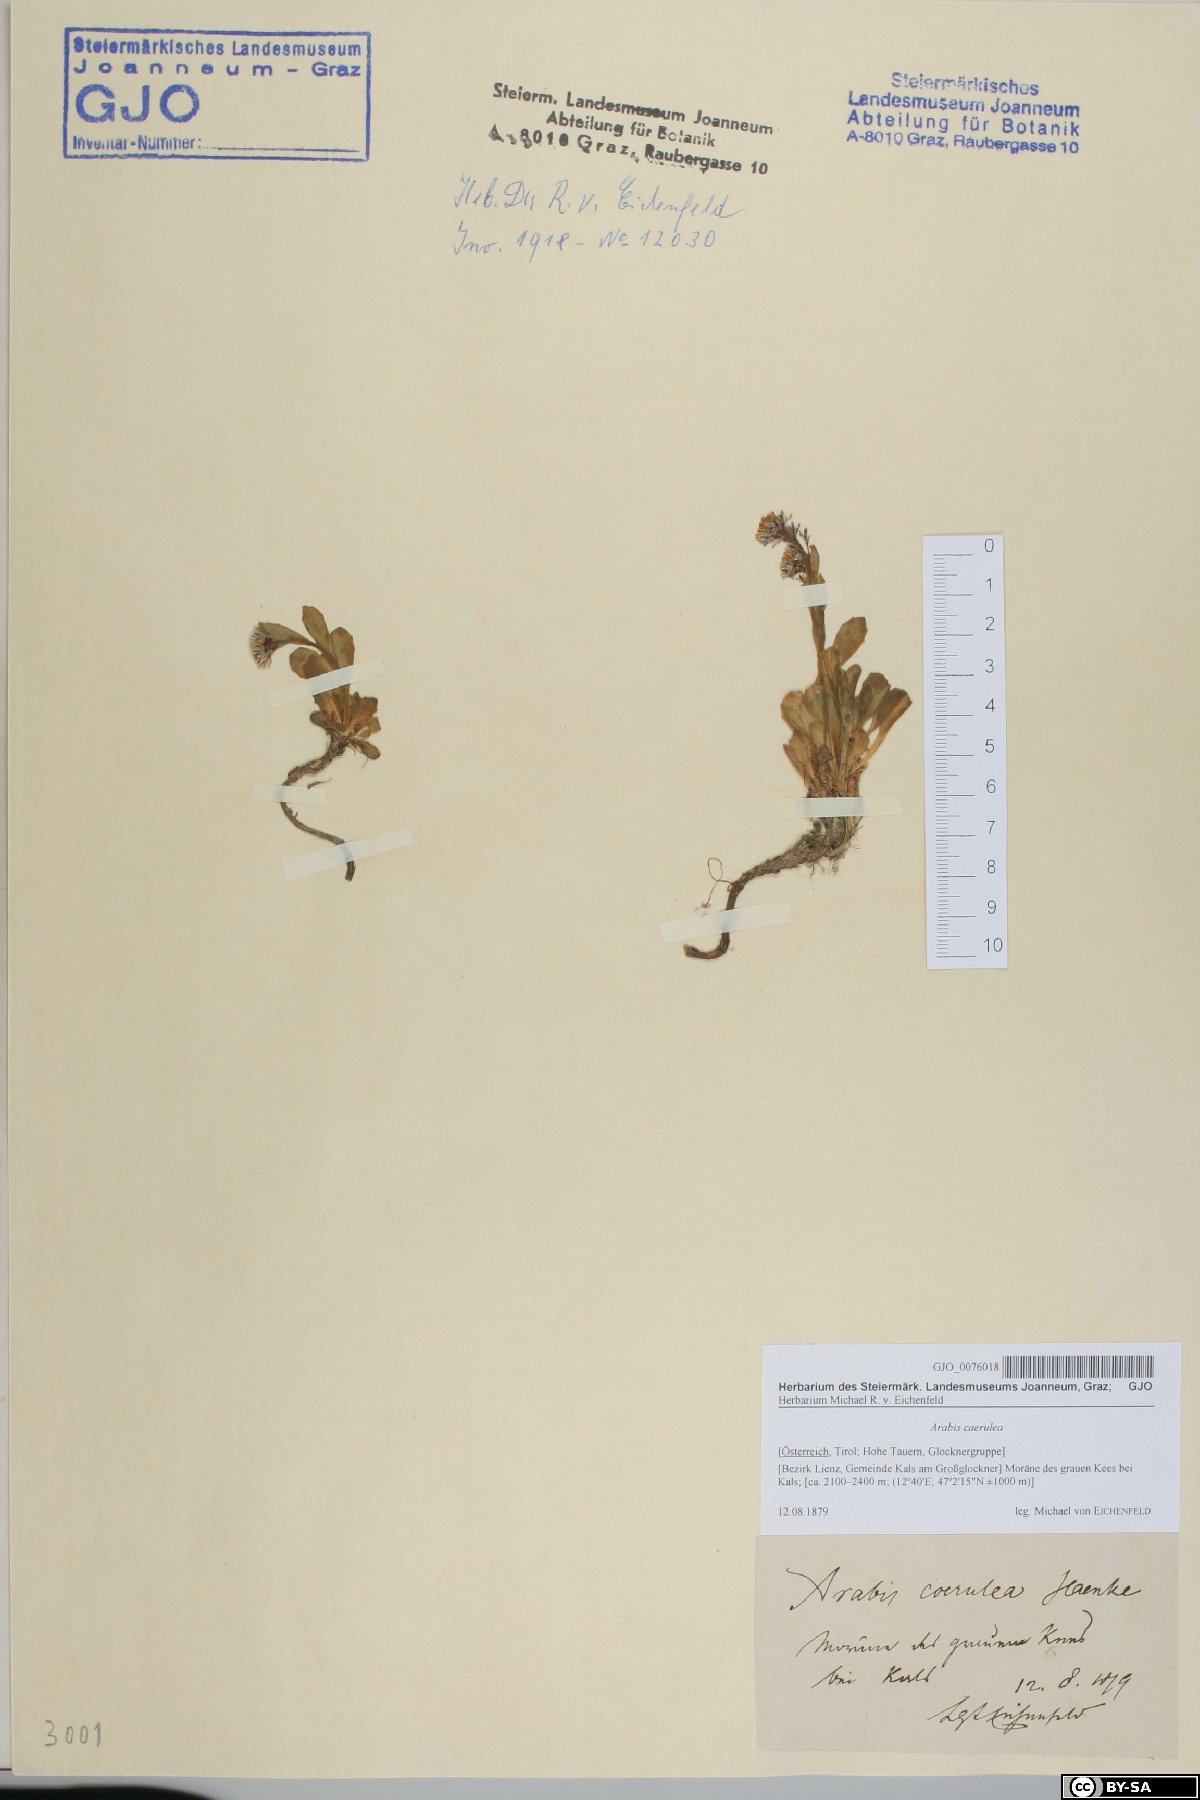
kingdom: Plantae
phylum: Tracheophyta
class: Magnoliopsida
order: Brassicales
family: Brassicaceae
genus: Arabis
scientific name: Arabis caerulea
